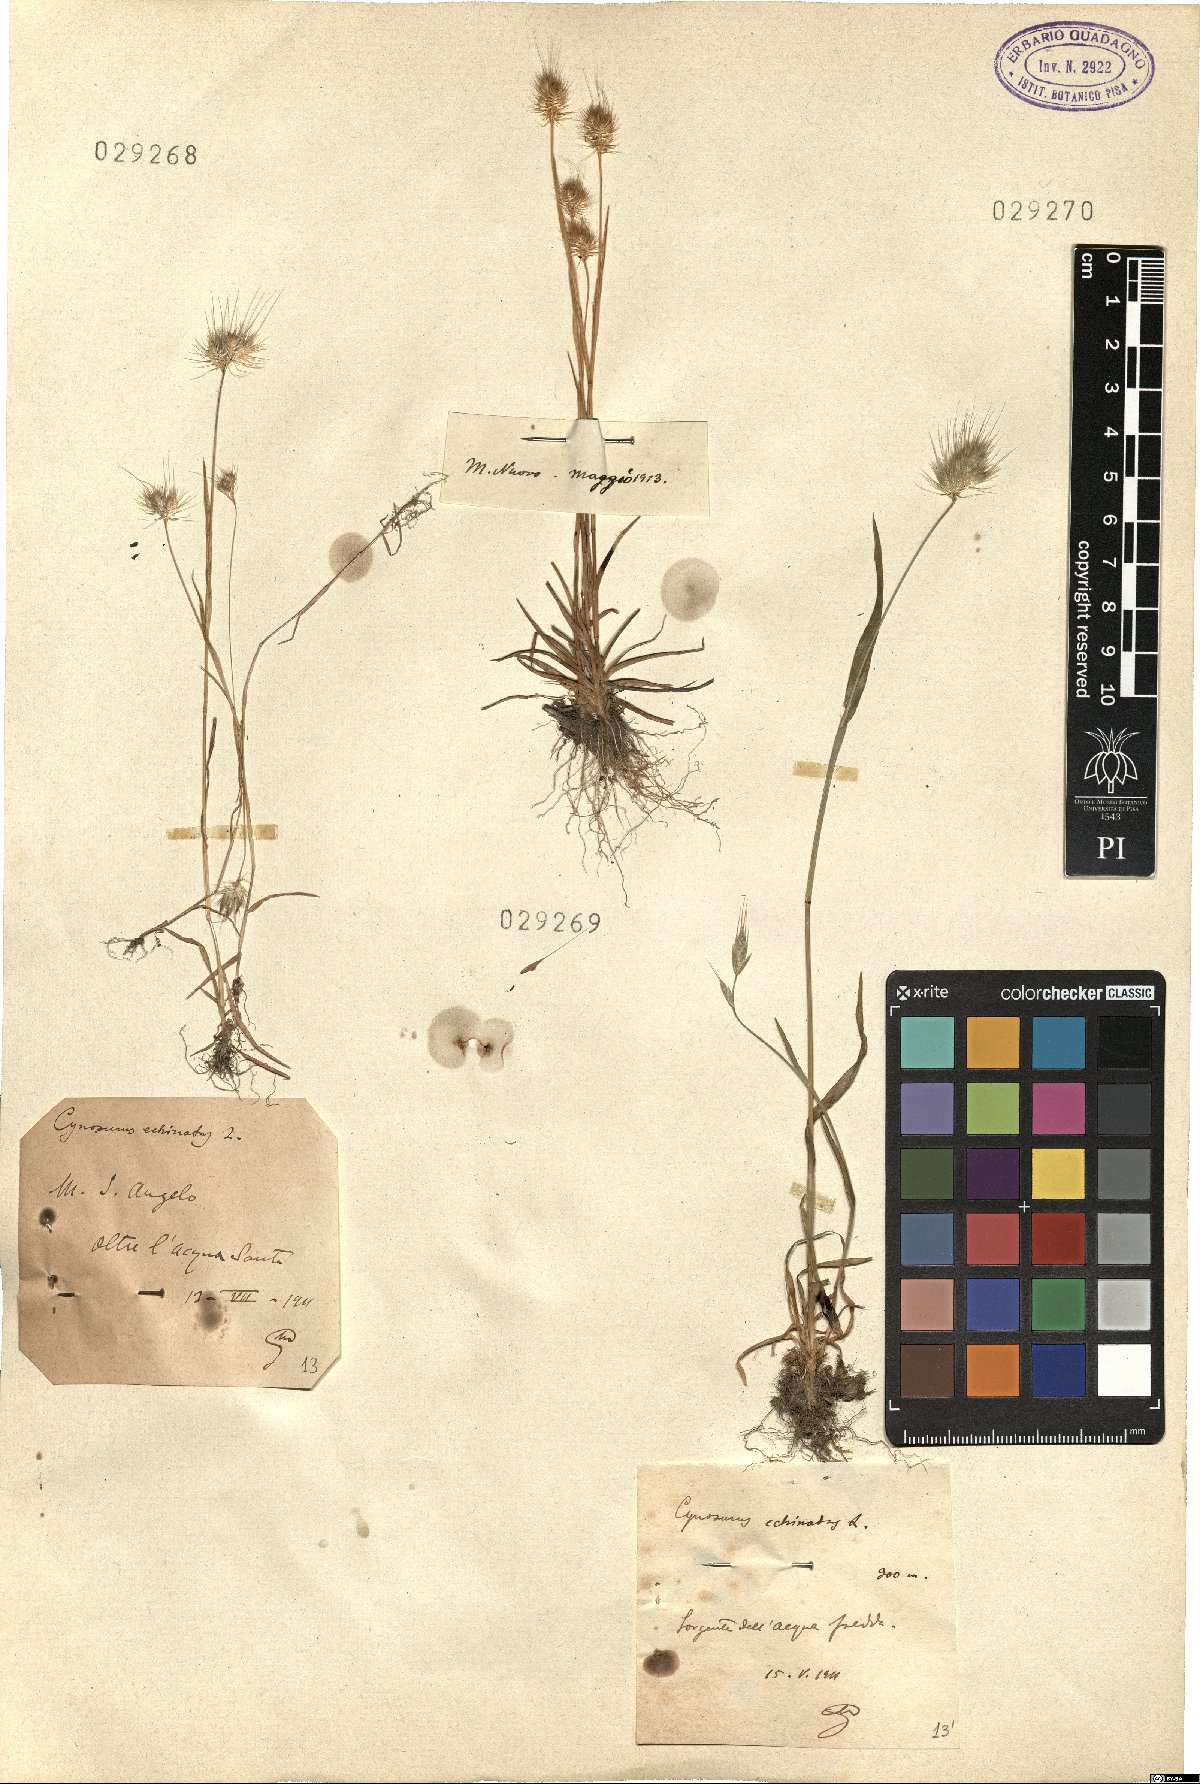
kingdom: Plantae
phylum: Tracheophyta
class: Liliopsida
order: Poales
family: Poaceae
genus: Cynosurus
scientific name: Cynosurus echinatus
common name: Rough dog's-tail
